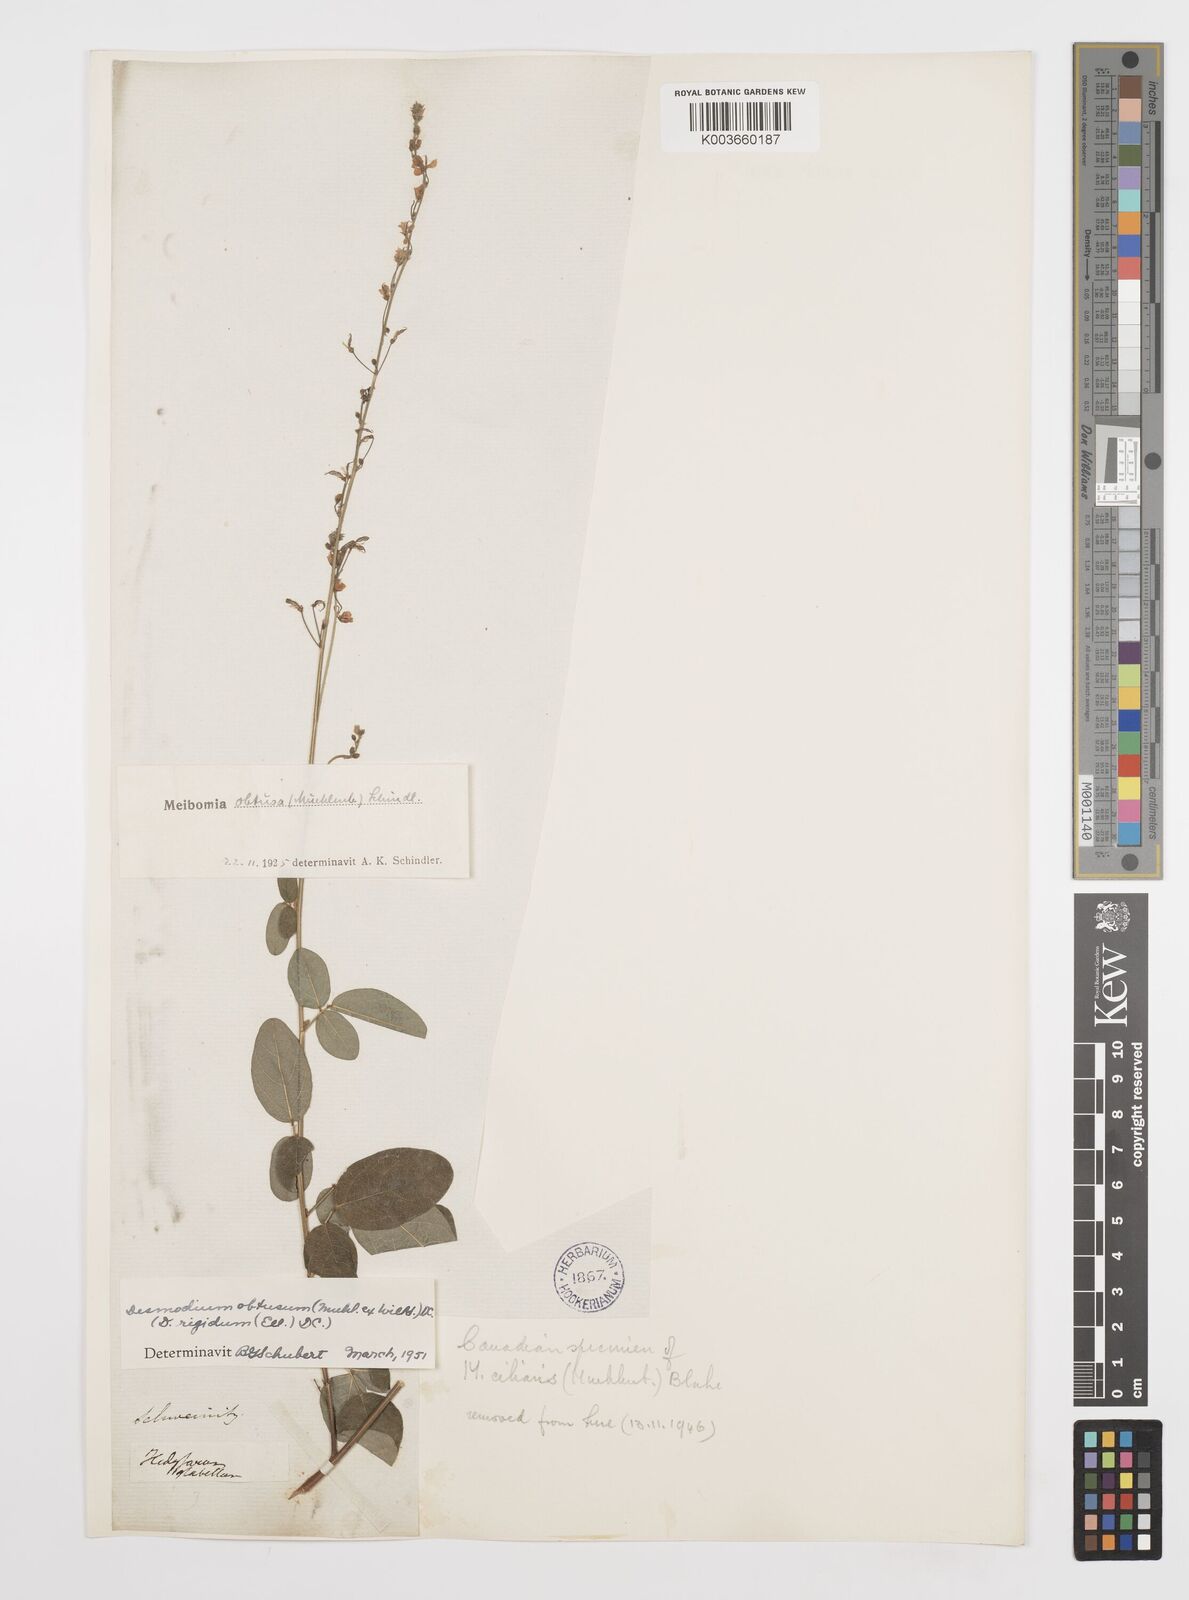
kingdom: Plantae
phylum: Tracheophyta
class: Magnoliopsida
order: Fabales
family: Fabaceae
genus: Desmodium
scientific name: Desmodium obtusum
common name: Stiff tick trefoil
